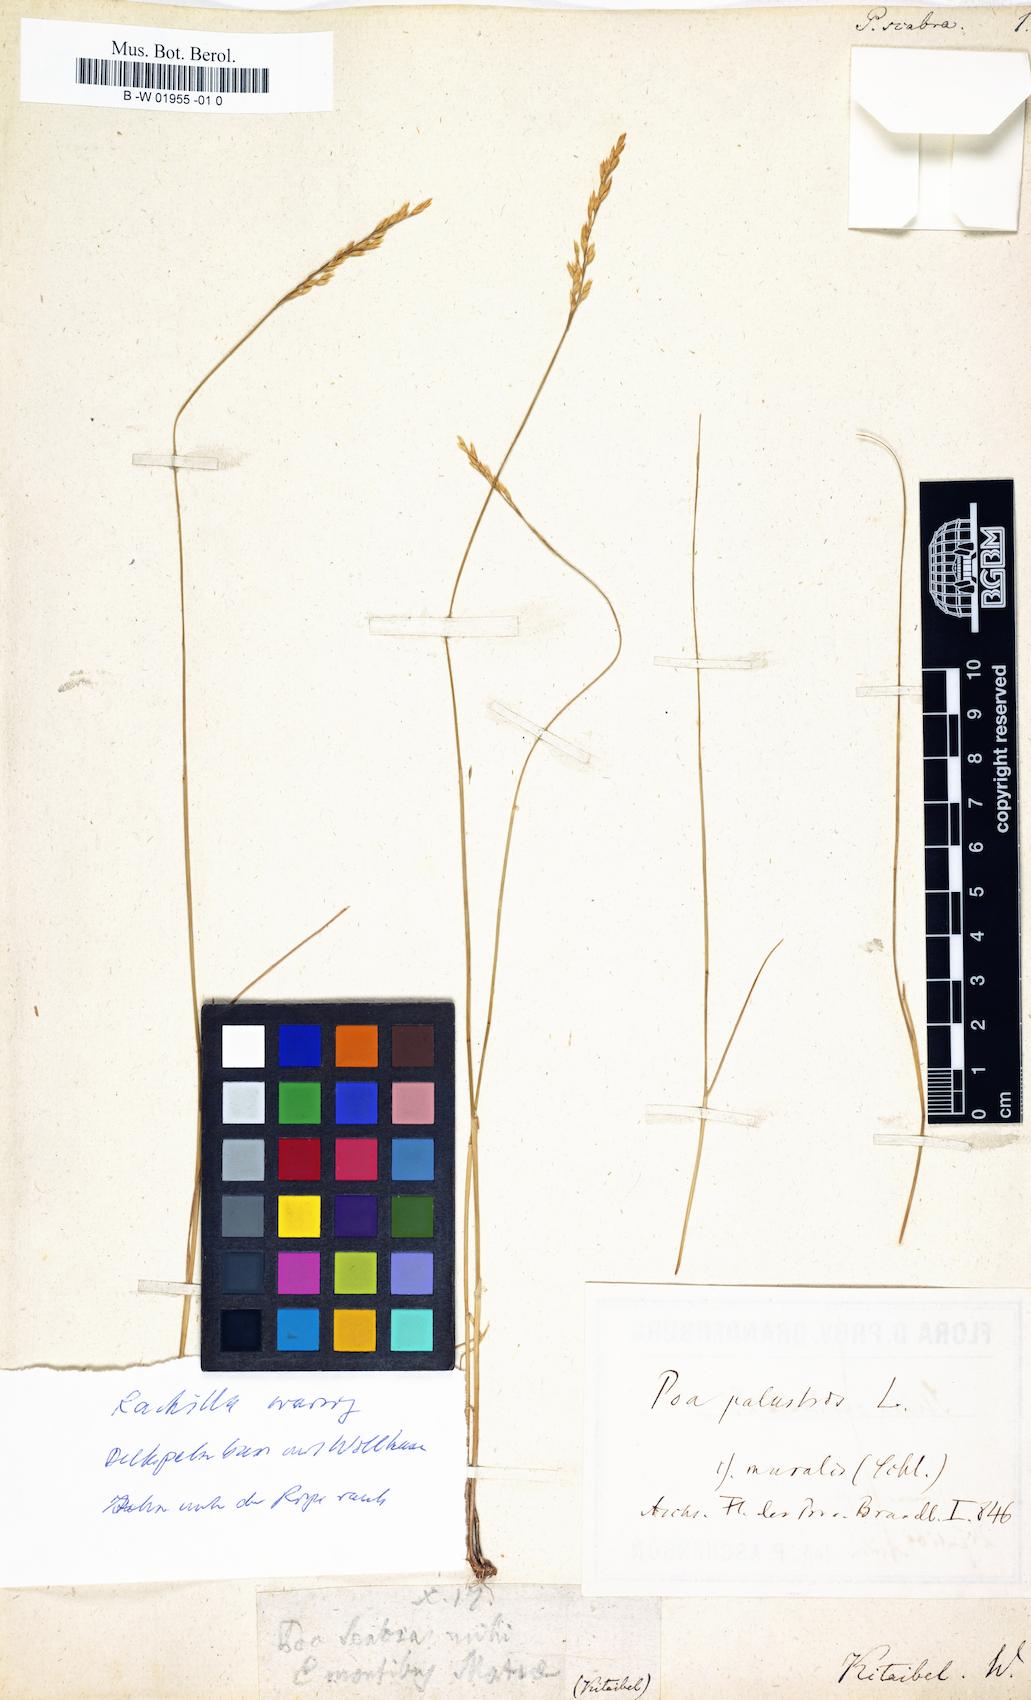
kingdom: Plantae
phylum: Tracheophyta
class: Liliopsida
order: Poales
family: Poaceae
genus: Poa
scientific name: Poa pannonica
